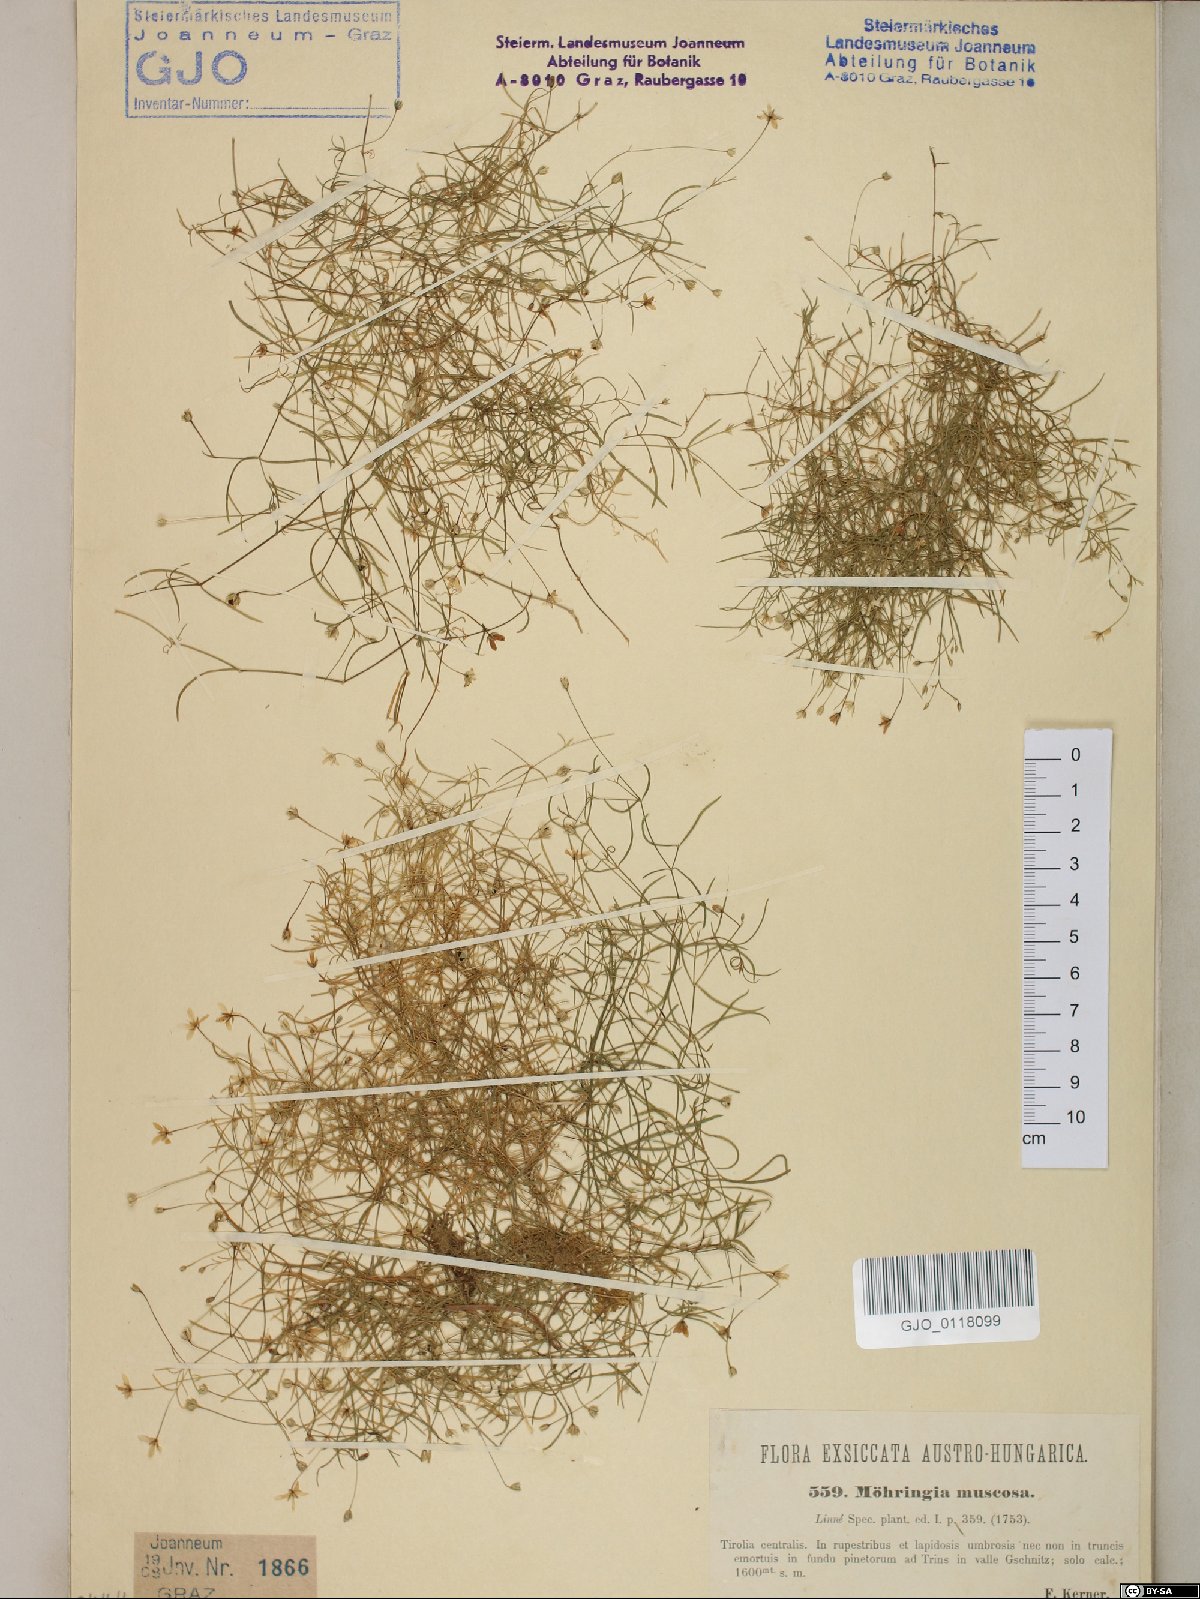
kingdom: Plantae
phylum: Tracheophyta
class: Magnoliopsida
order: Caryophyllales
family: Caryophyllaceae
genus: Moehringia
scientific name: Moehringia muscosa
